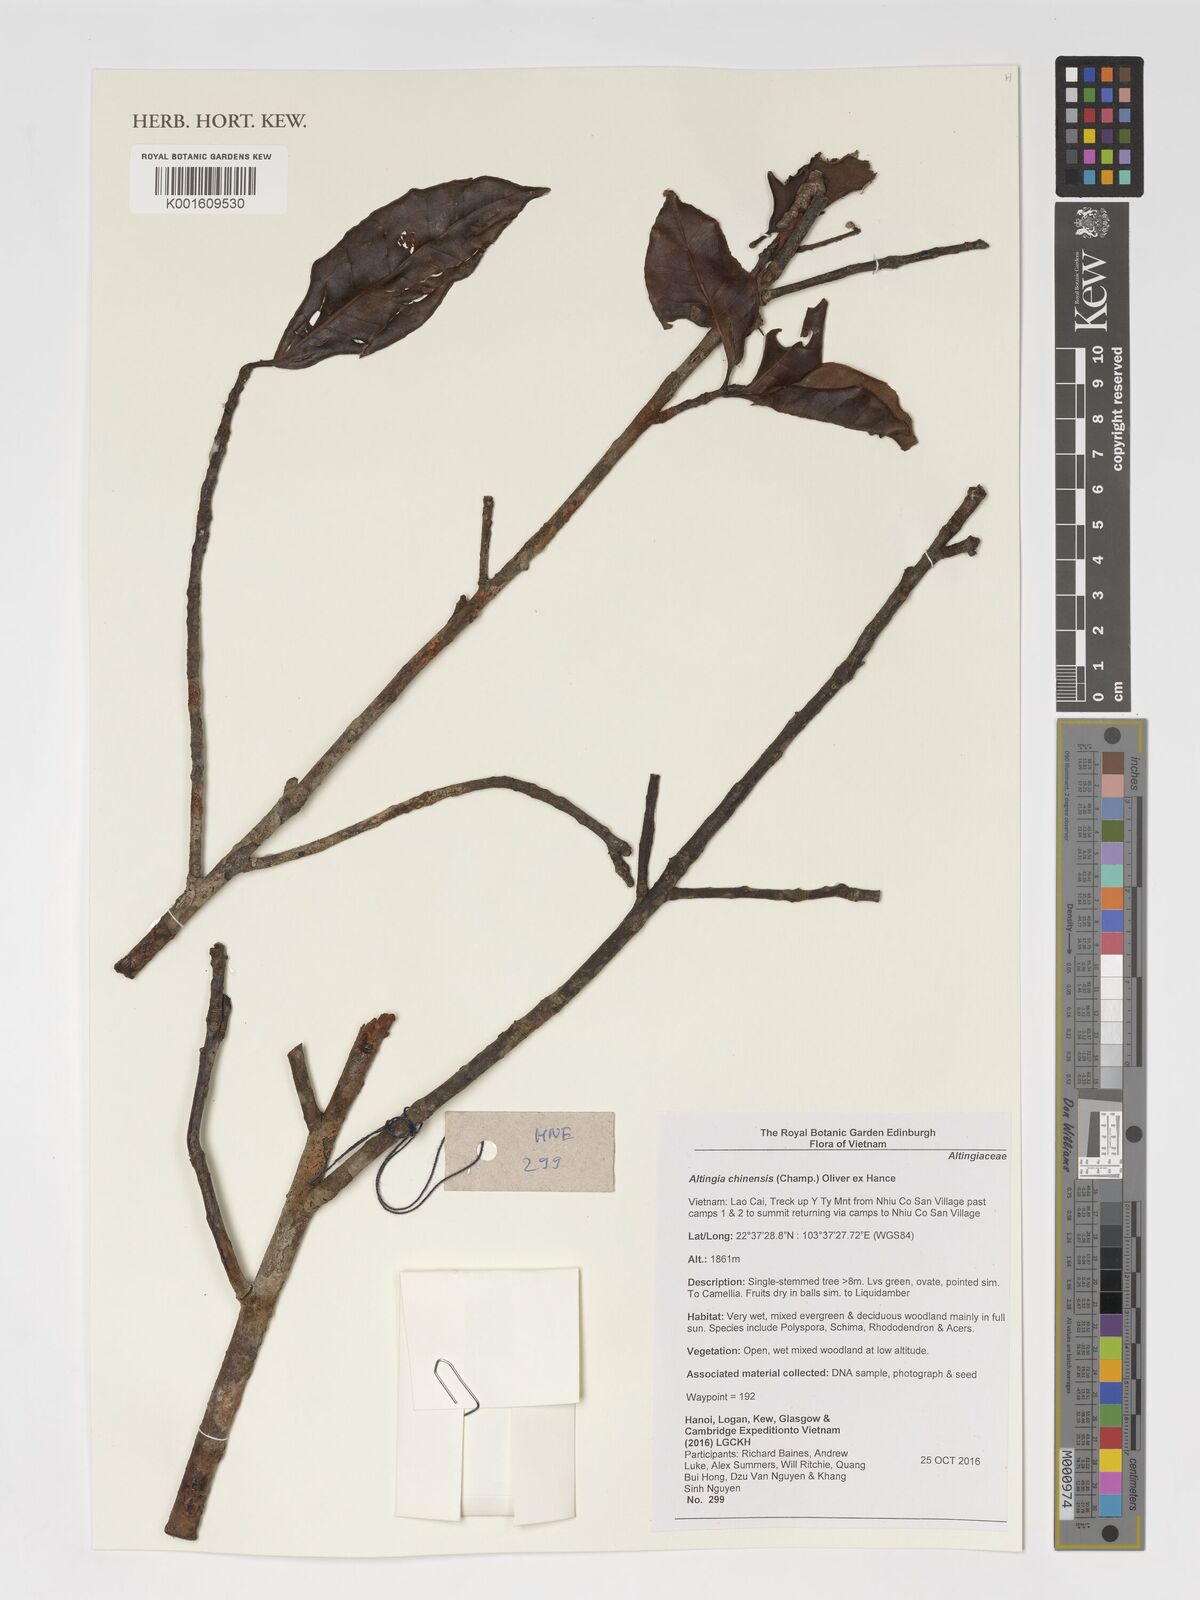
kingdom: Plantae
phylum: Tracheophyta
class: Magnoliopsida
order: Saxifragales
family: Altingiaceae
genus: Liquidambar
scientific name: Liquidambar chinensis
